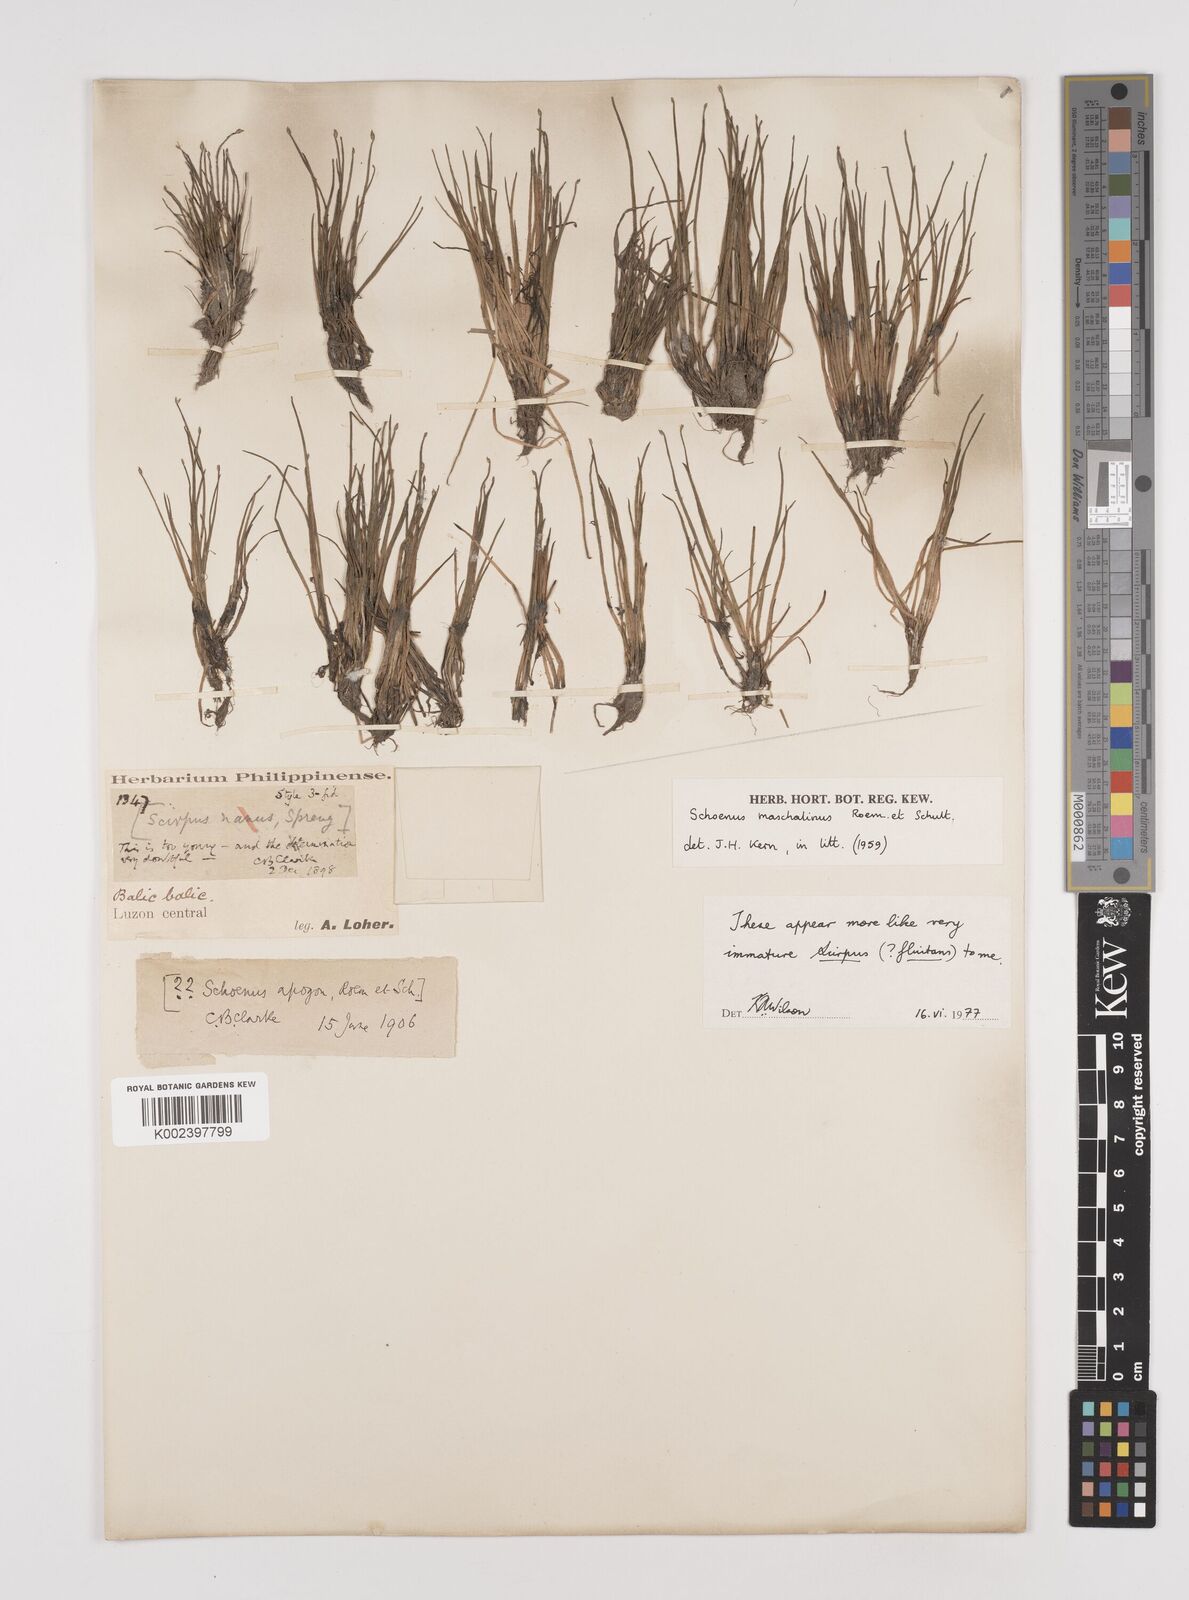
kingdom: Plantae
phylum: Tracheophyta
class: Liliopsida
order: Poales
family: Cyperaceae
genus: Schoenus
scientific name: Schoenus maschalinus
